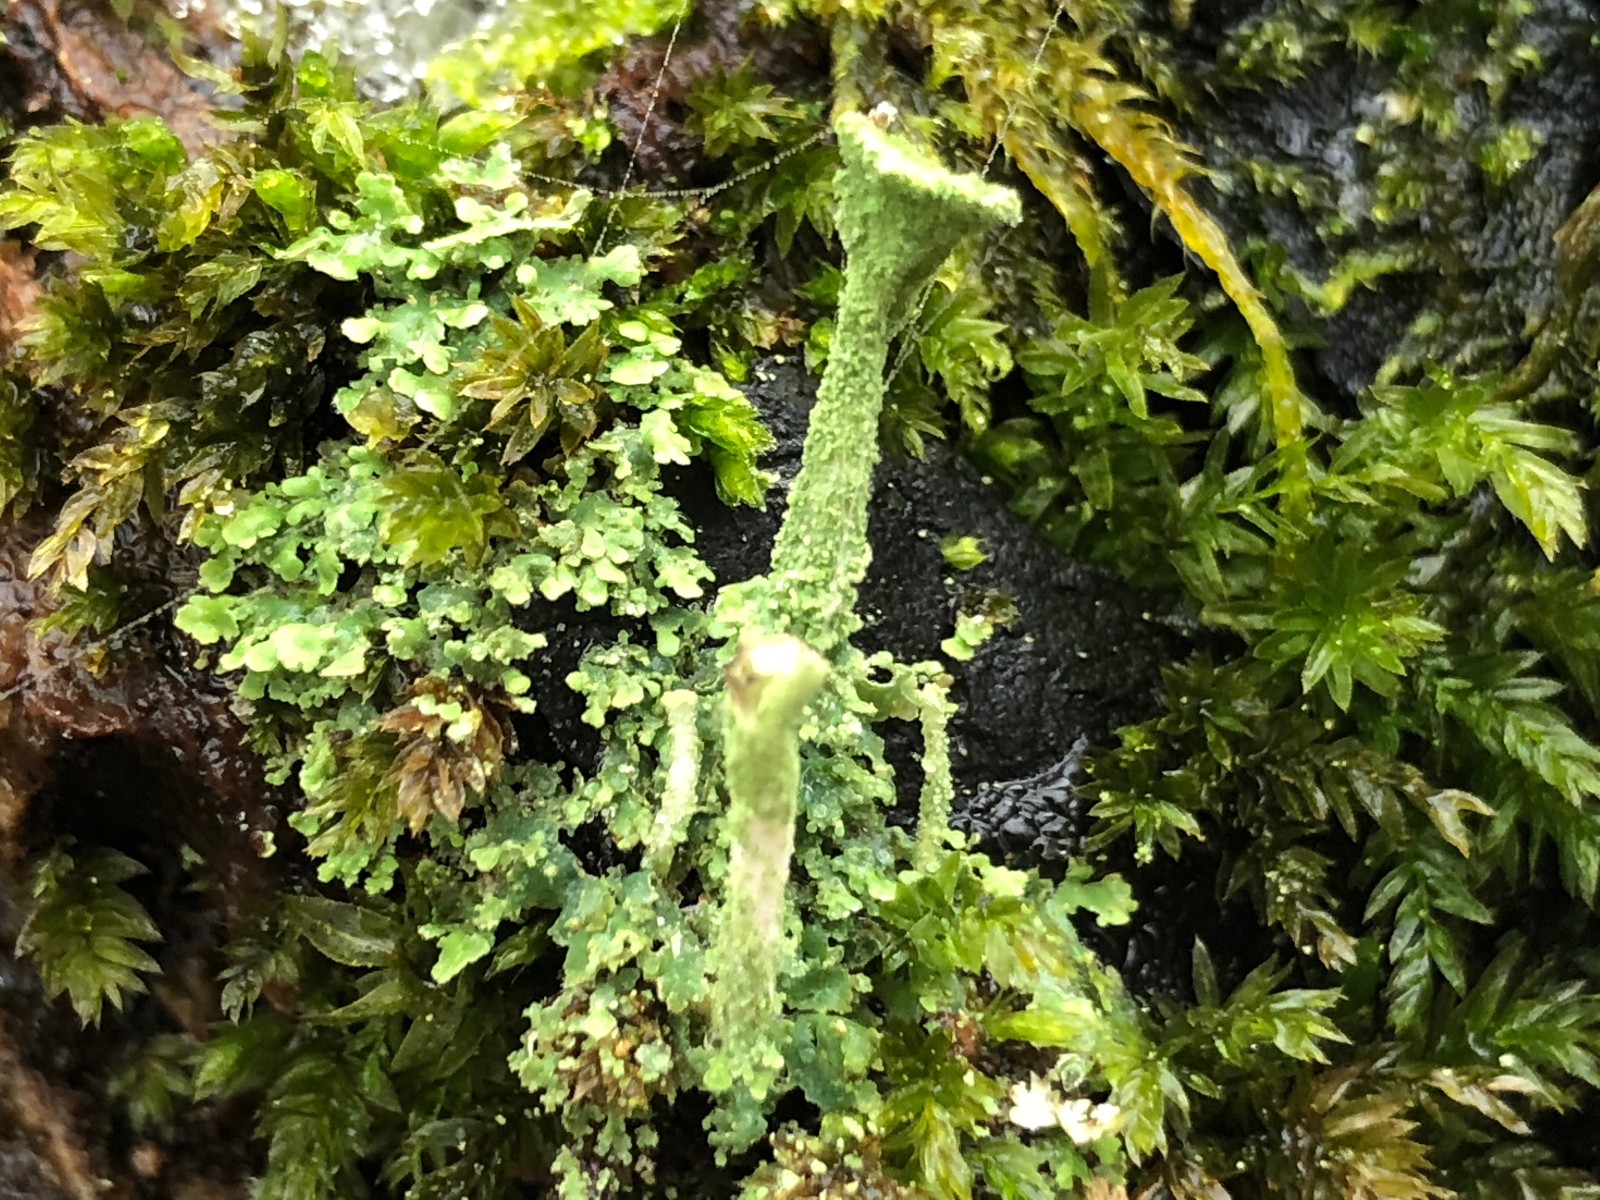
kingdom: Fungi
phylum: Ascomycota
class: Lecanoromycetes
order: Lecanorales
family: Cladoniaceae
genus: Cladonia
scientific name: Cladonia
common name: brungrøn bægerlav
